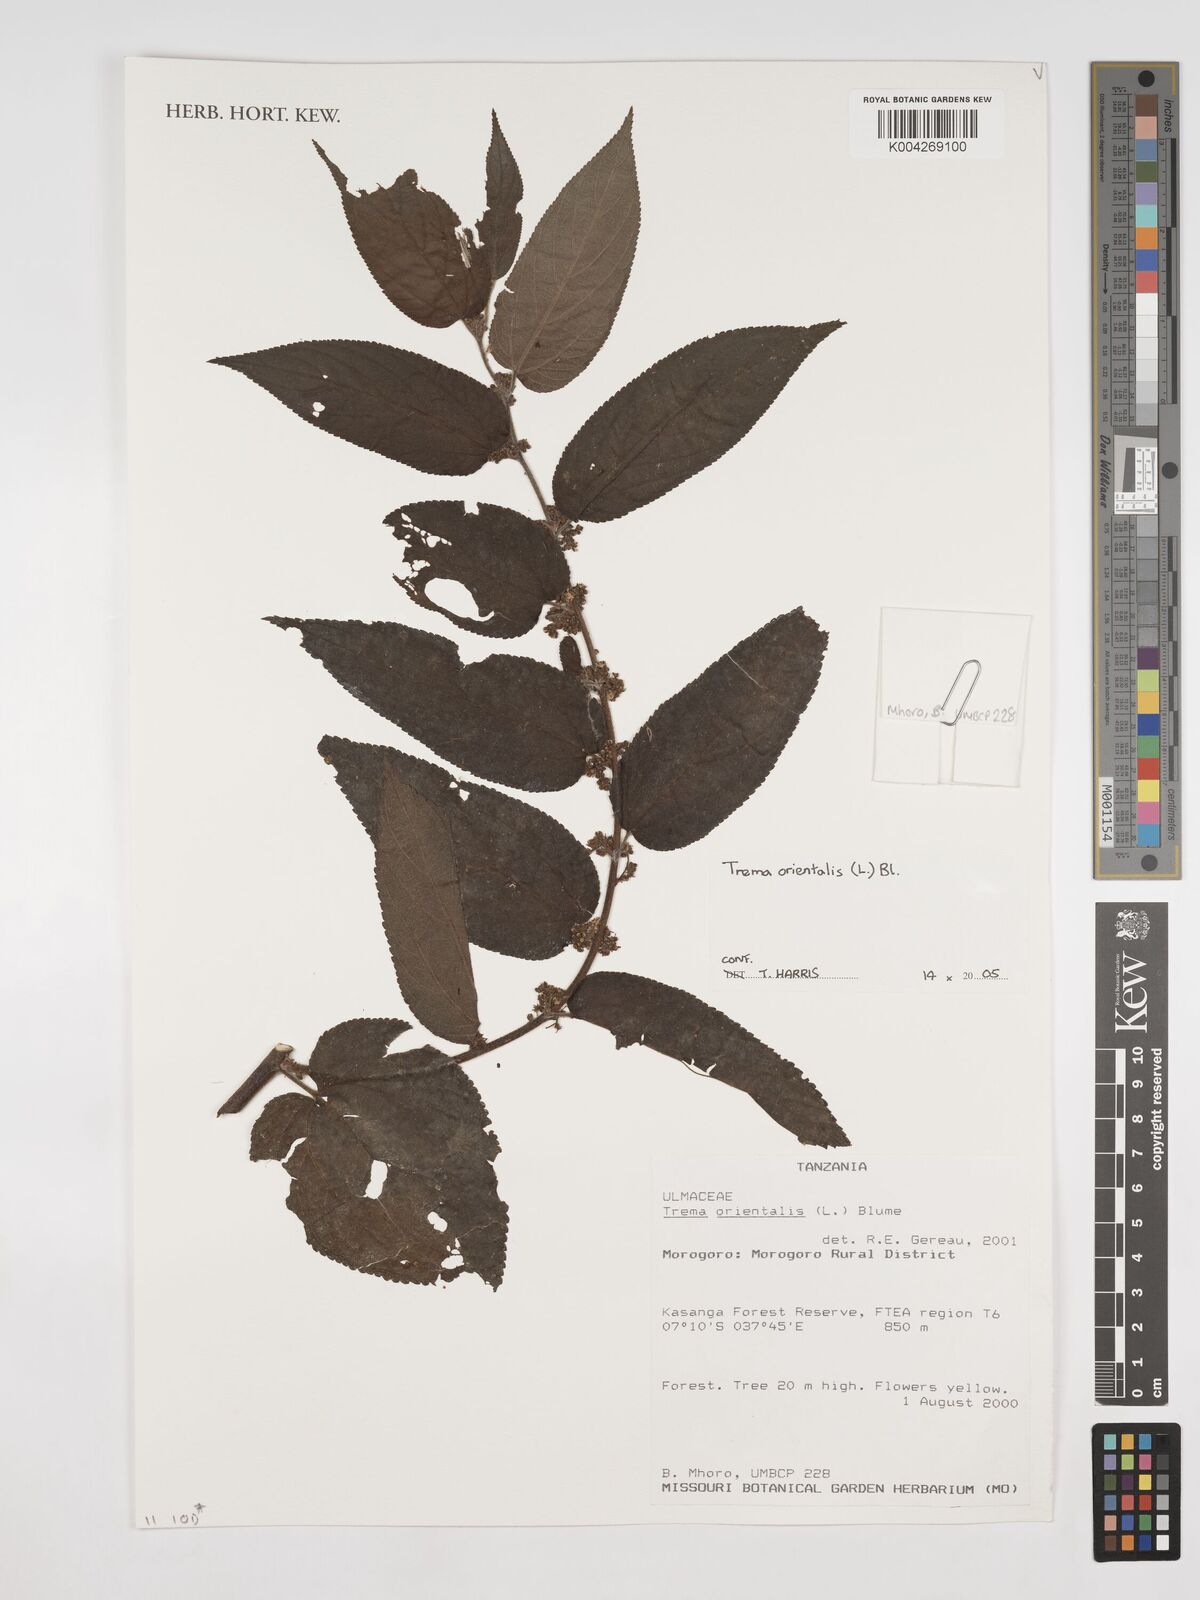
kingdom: Plantae
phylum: Tracheophyta
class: Magnoliopsida
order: Rosales
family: Cannabaceae
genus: Trema
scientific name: Trema orientale
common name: Indian charcoal tree
